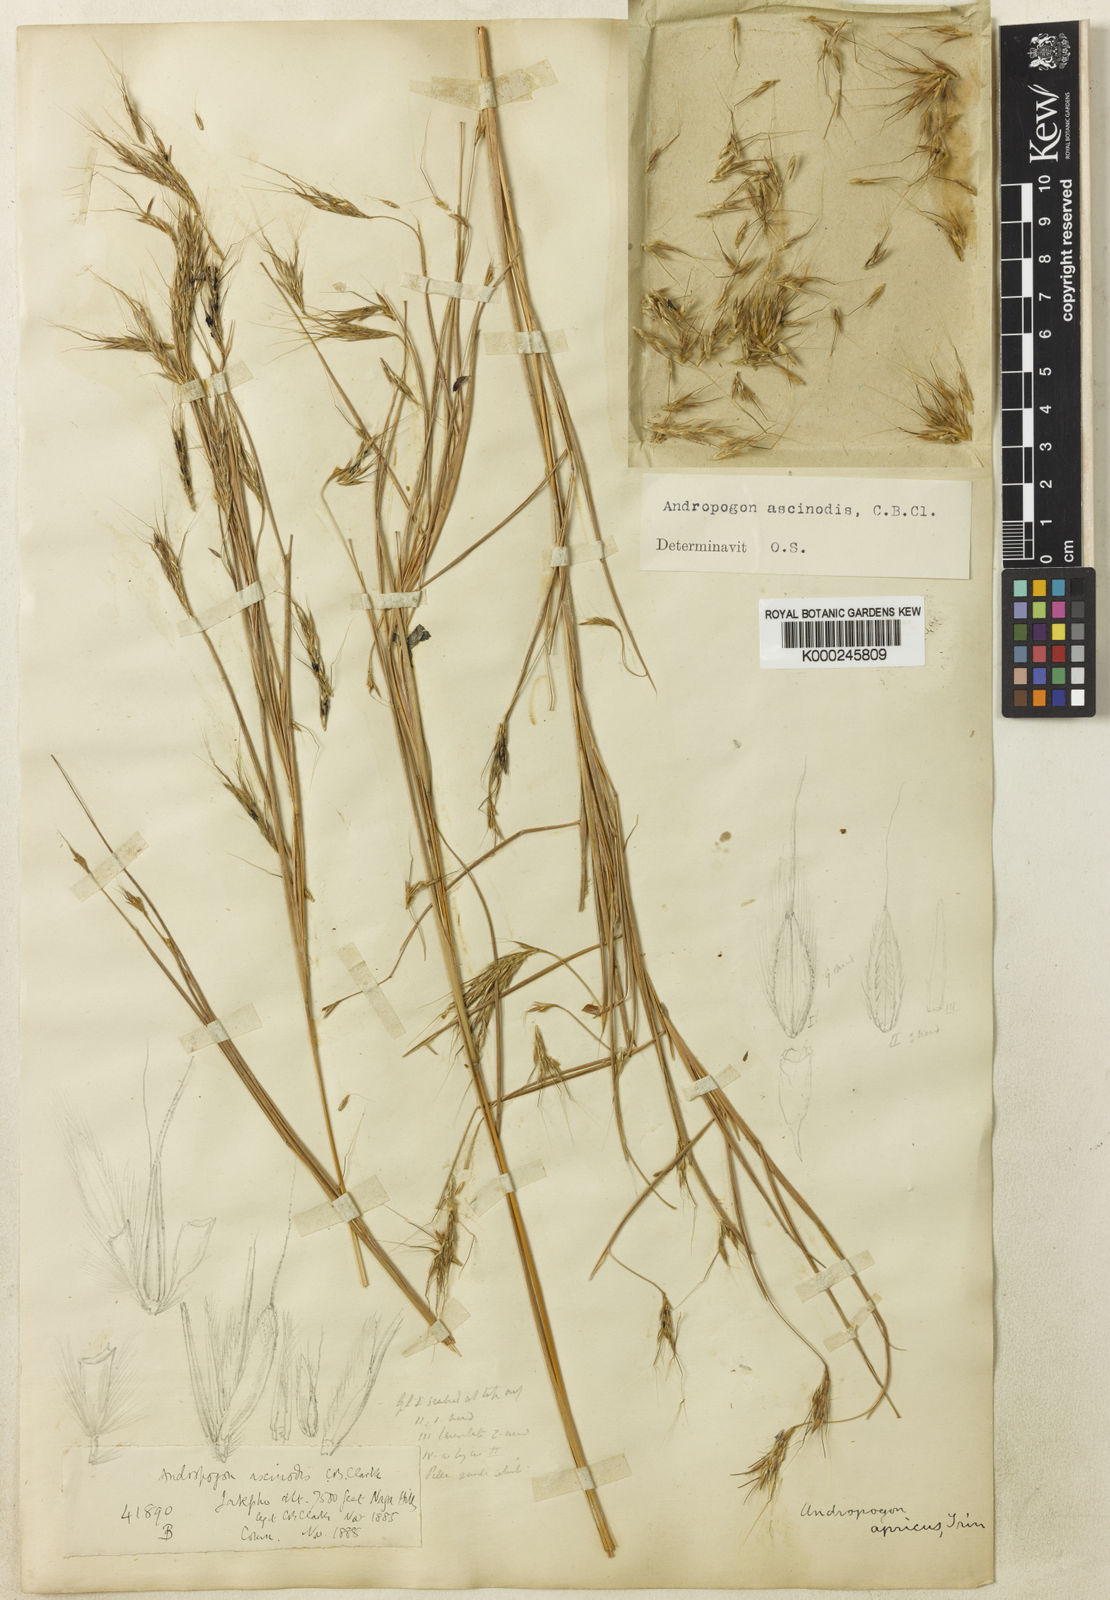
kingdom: Plantae
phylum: Tracheophyta
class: Liliopsida
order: Poales
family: Poaceae
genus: Andropogon
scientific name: Andropogon chinensis
